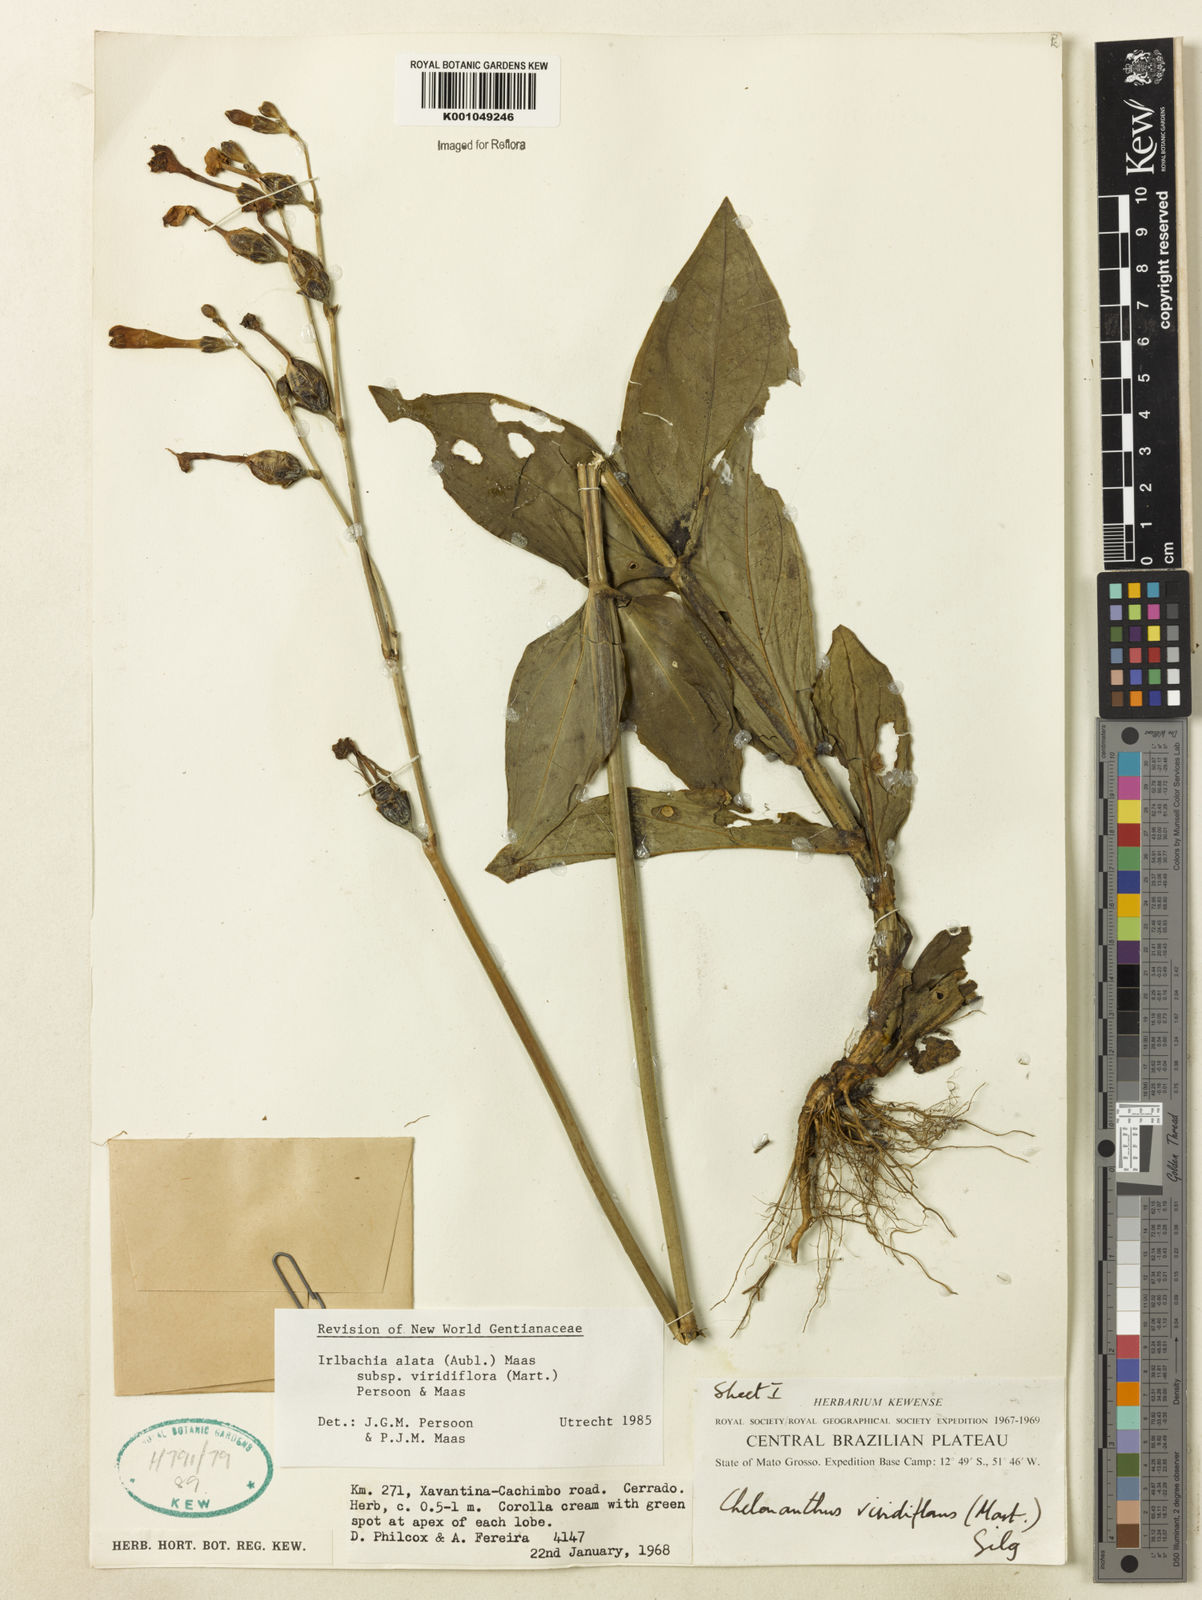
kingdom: Plantae
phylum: Tracheophyta
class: Magnoliopsida
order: Gentianales
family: Gentianaceae
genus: Chelonanthus
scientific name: Chelonanthus viridiflorus
